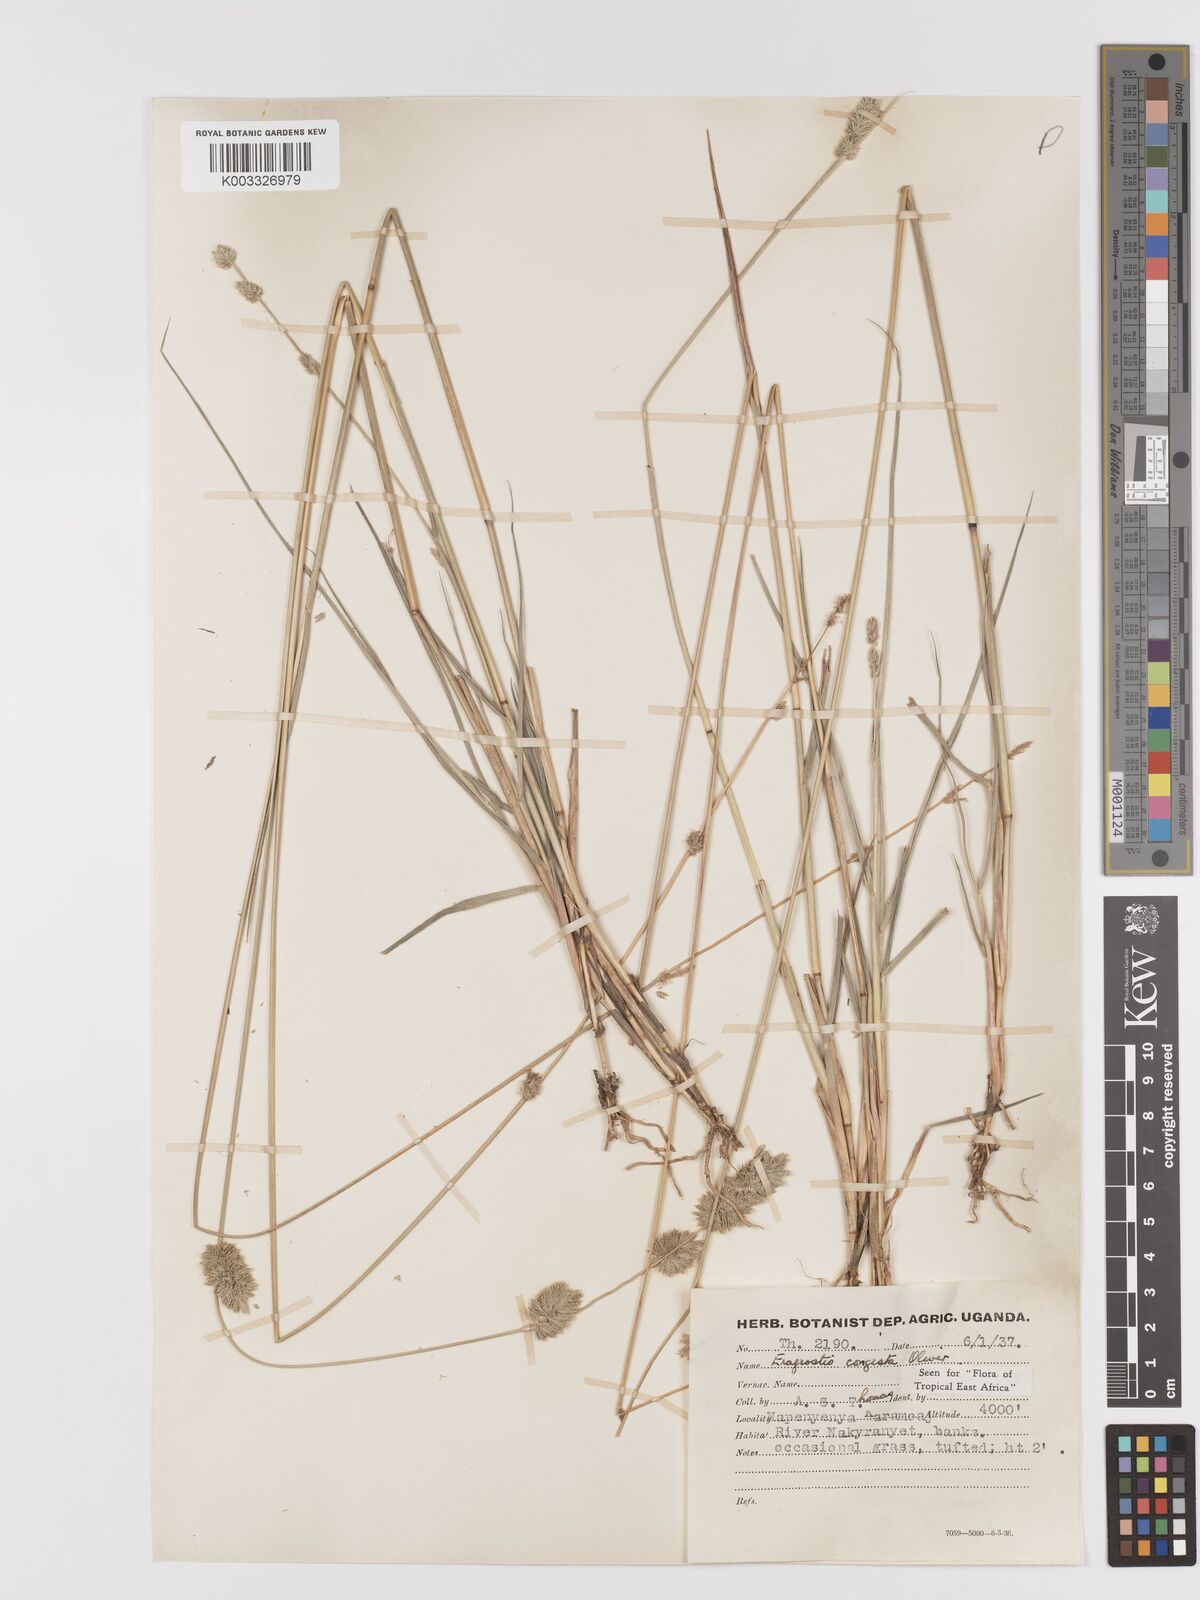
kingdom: Plantae
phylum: Tracheophyta
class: Liliopsida
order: Poales
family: Poaceae
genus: Eragrostis
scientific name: Eragrostis congesta
